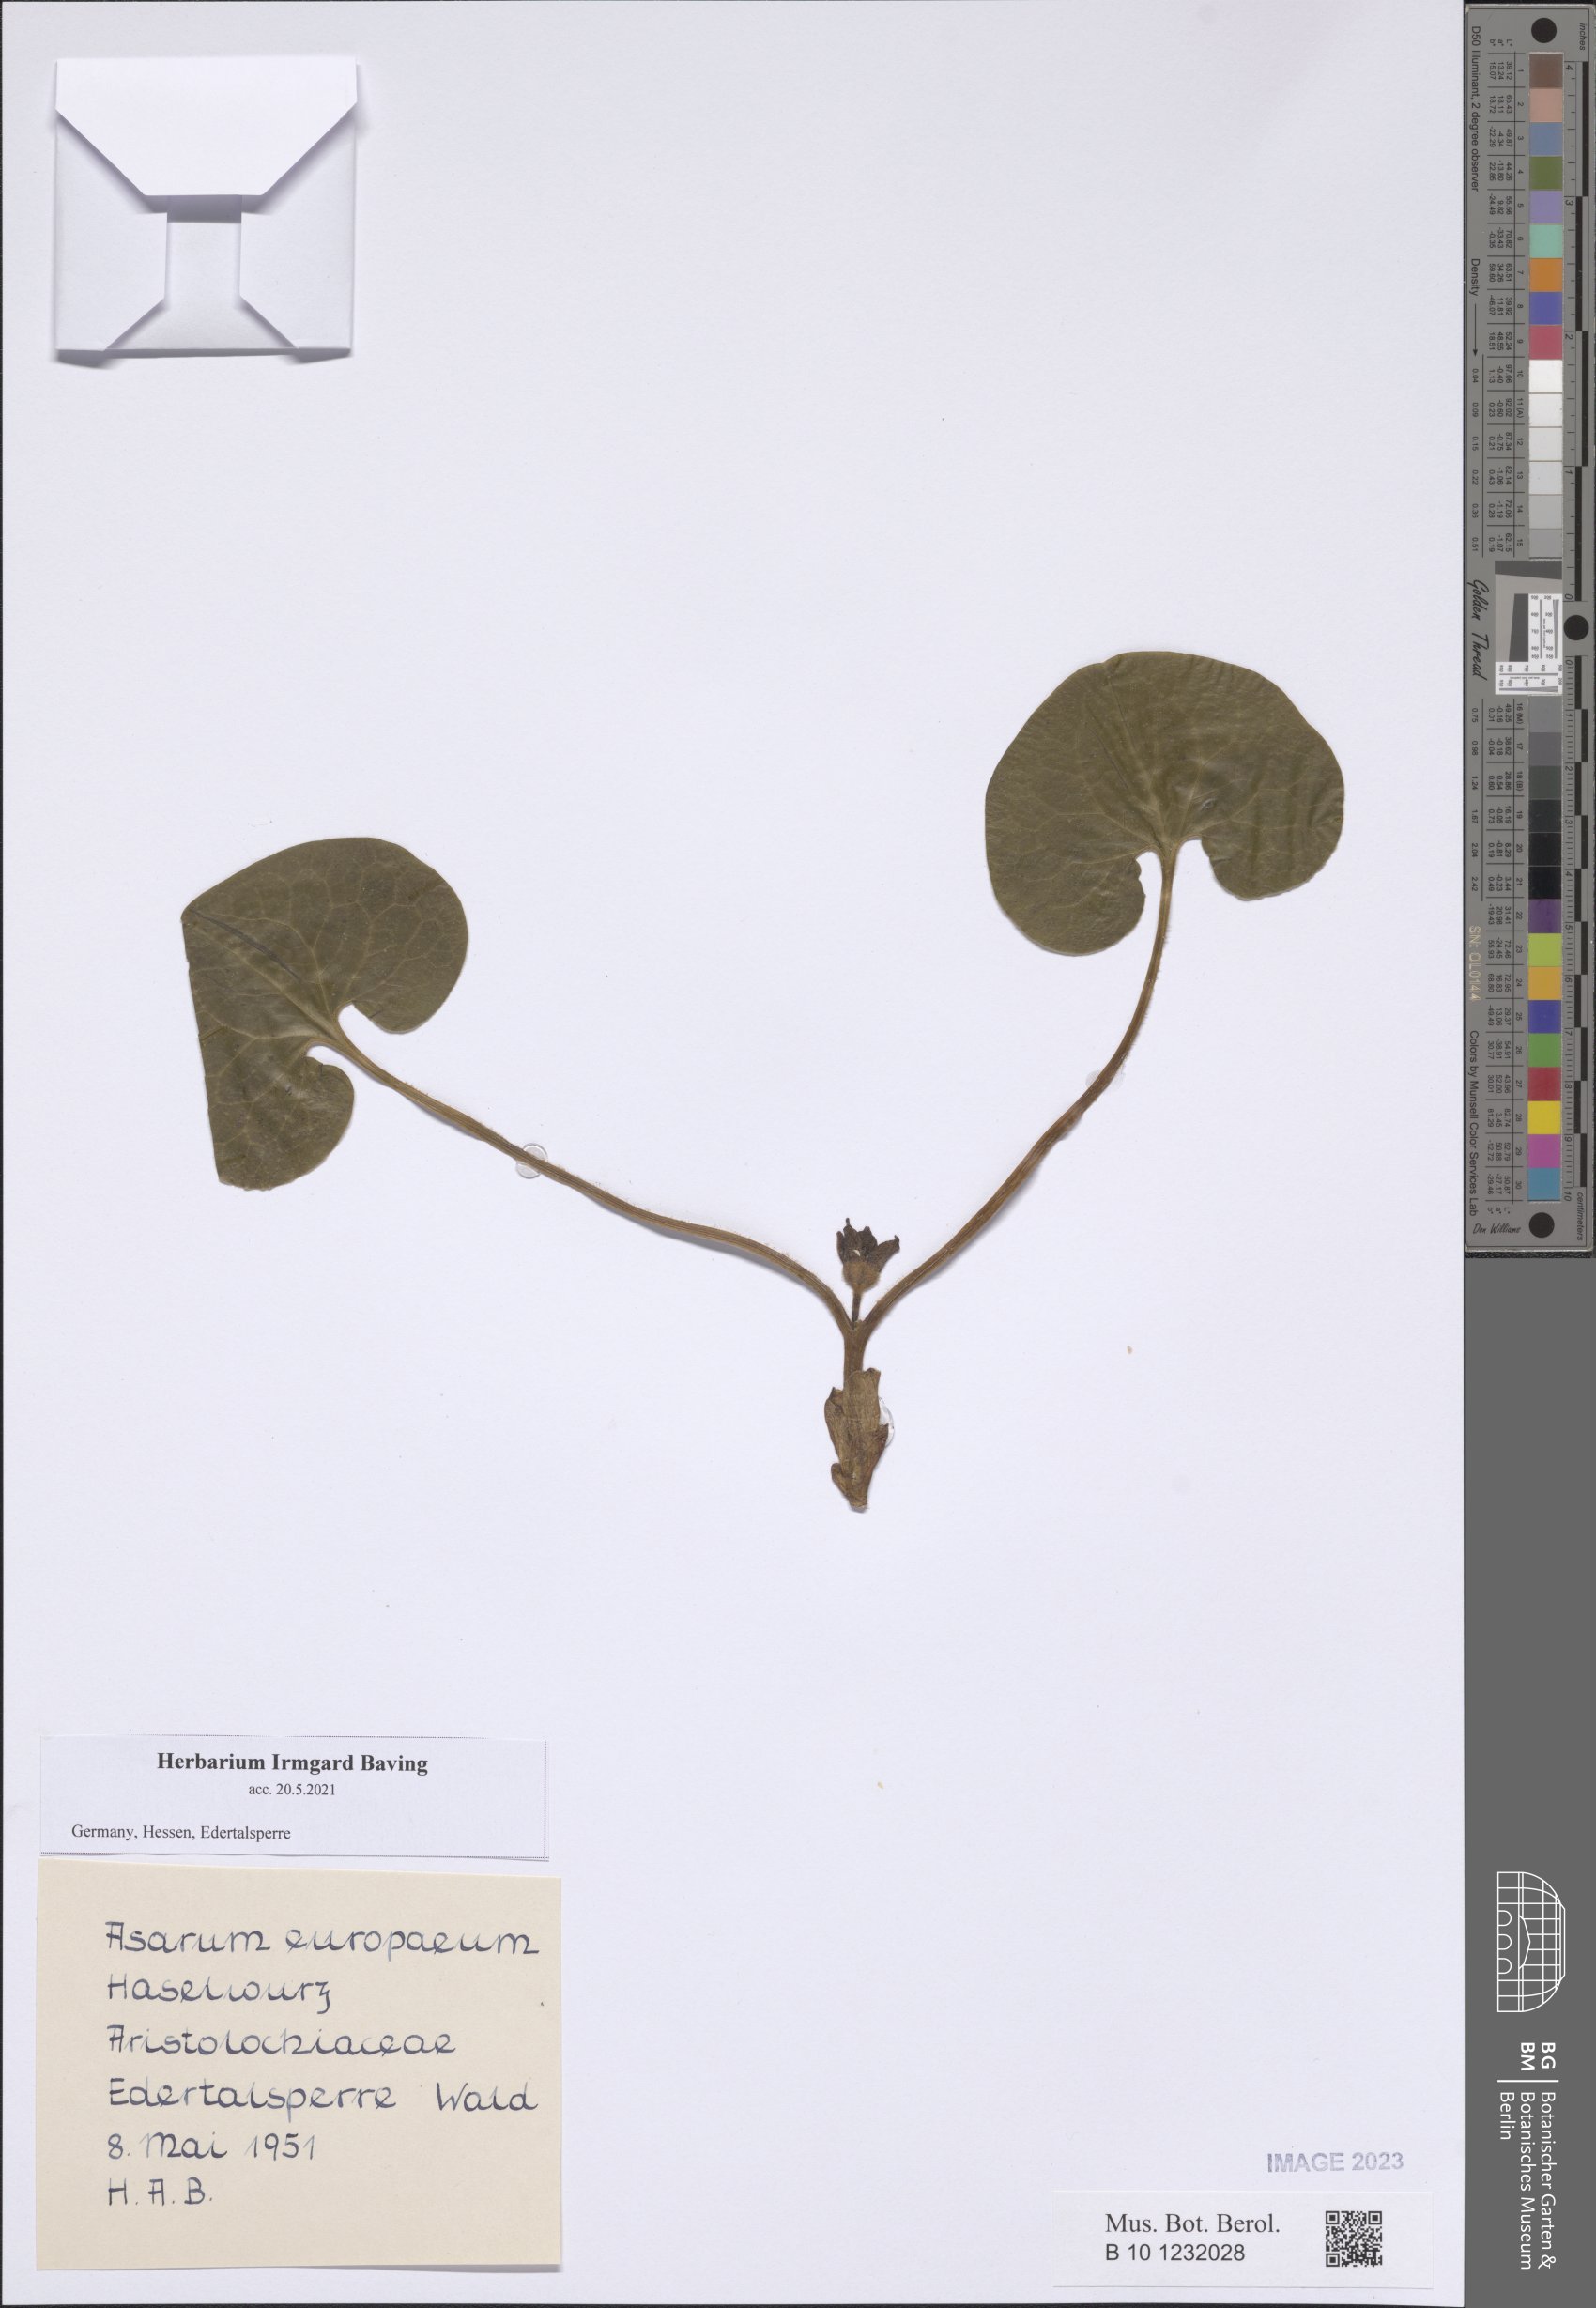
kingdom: Plantae
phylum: Tracheophyta
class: Magnoliopsida
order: Piperales
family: Aristolochiaceae
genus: Asarum
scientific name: Asarum europaeum
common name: Asarabacca
